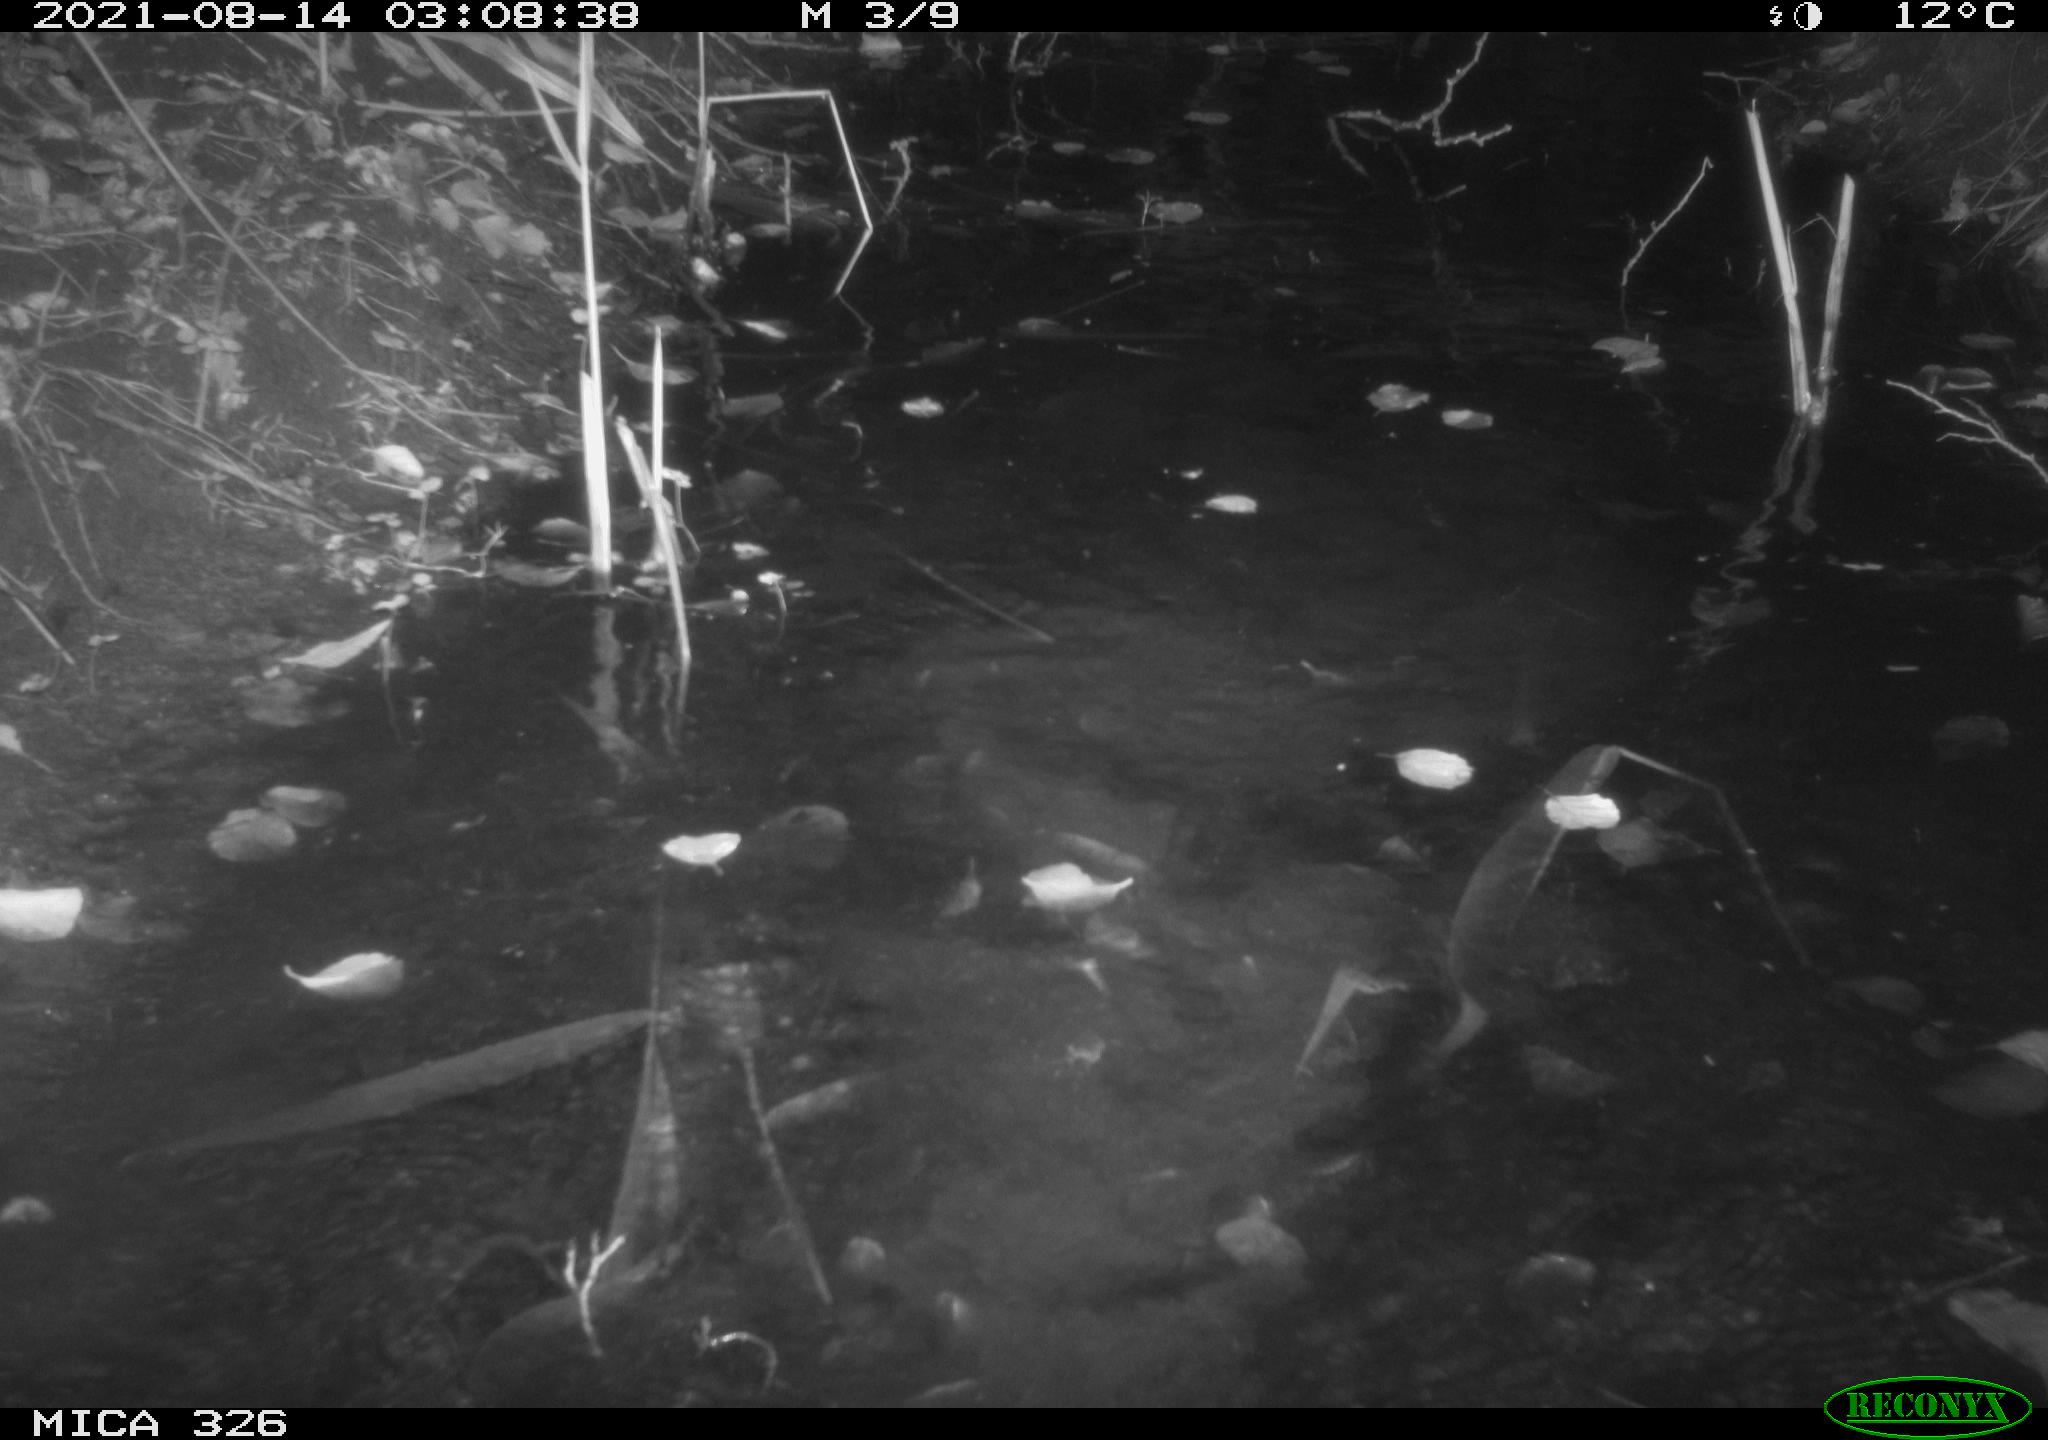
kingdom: Animalia
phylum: Chordata
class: Mammalia
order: Rodentia
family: Myocastoridae
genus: Myocastor
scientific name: Myocastor coypus
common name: Coypu
